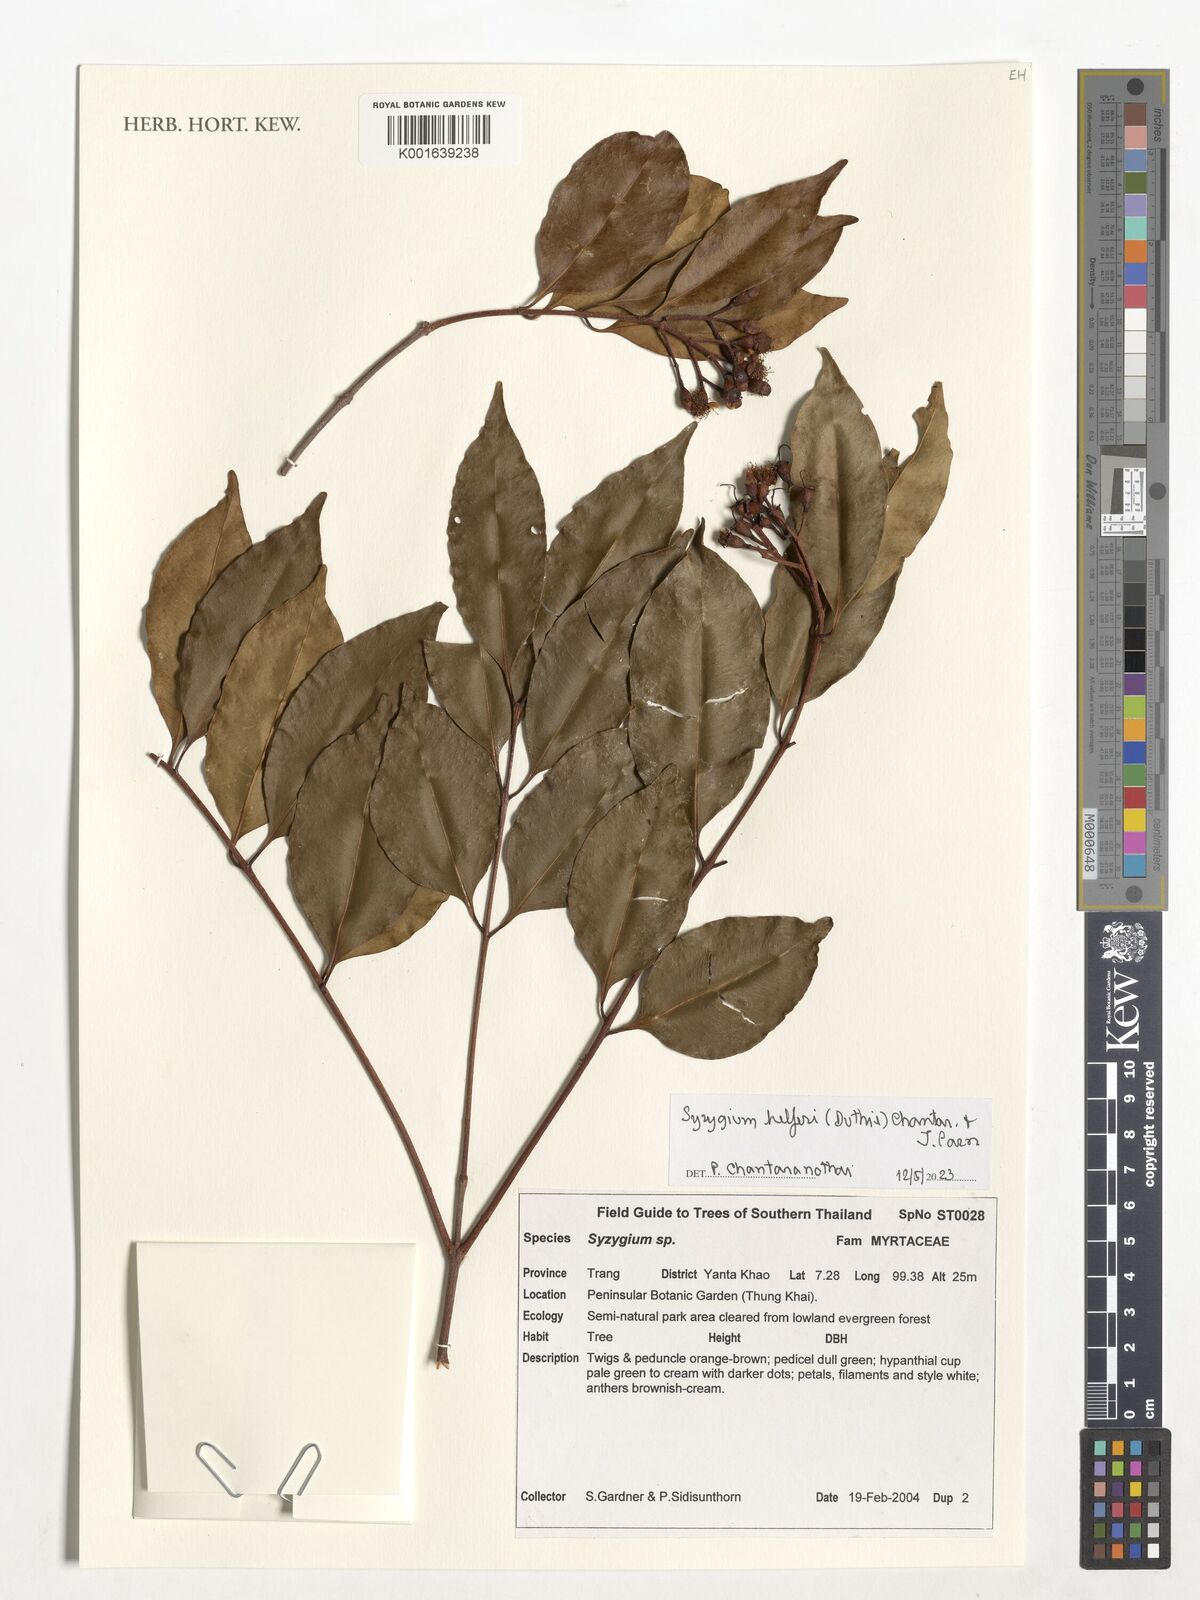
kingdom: Plantae
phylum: Tracheophyta
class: Magnoliopsida
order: Myrtales
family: Myrtaceae
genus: Syzygium
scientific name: Syzygium helferi
